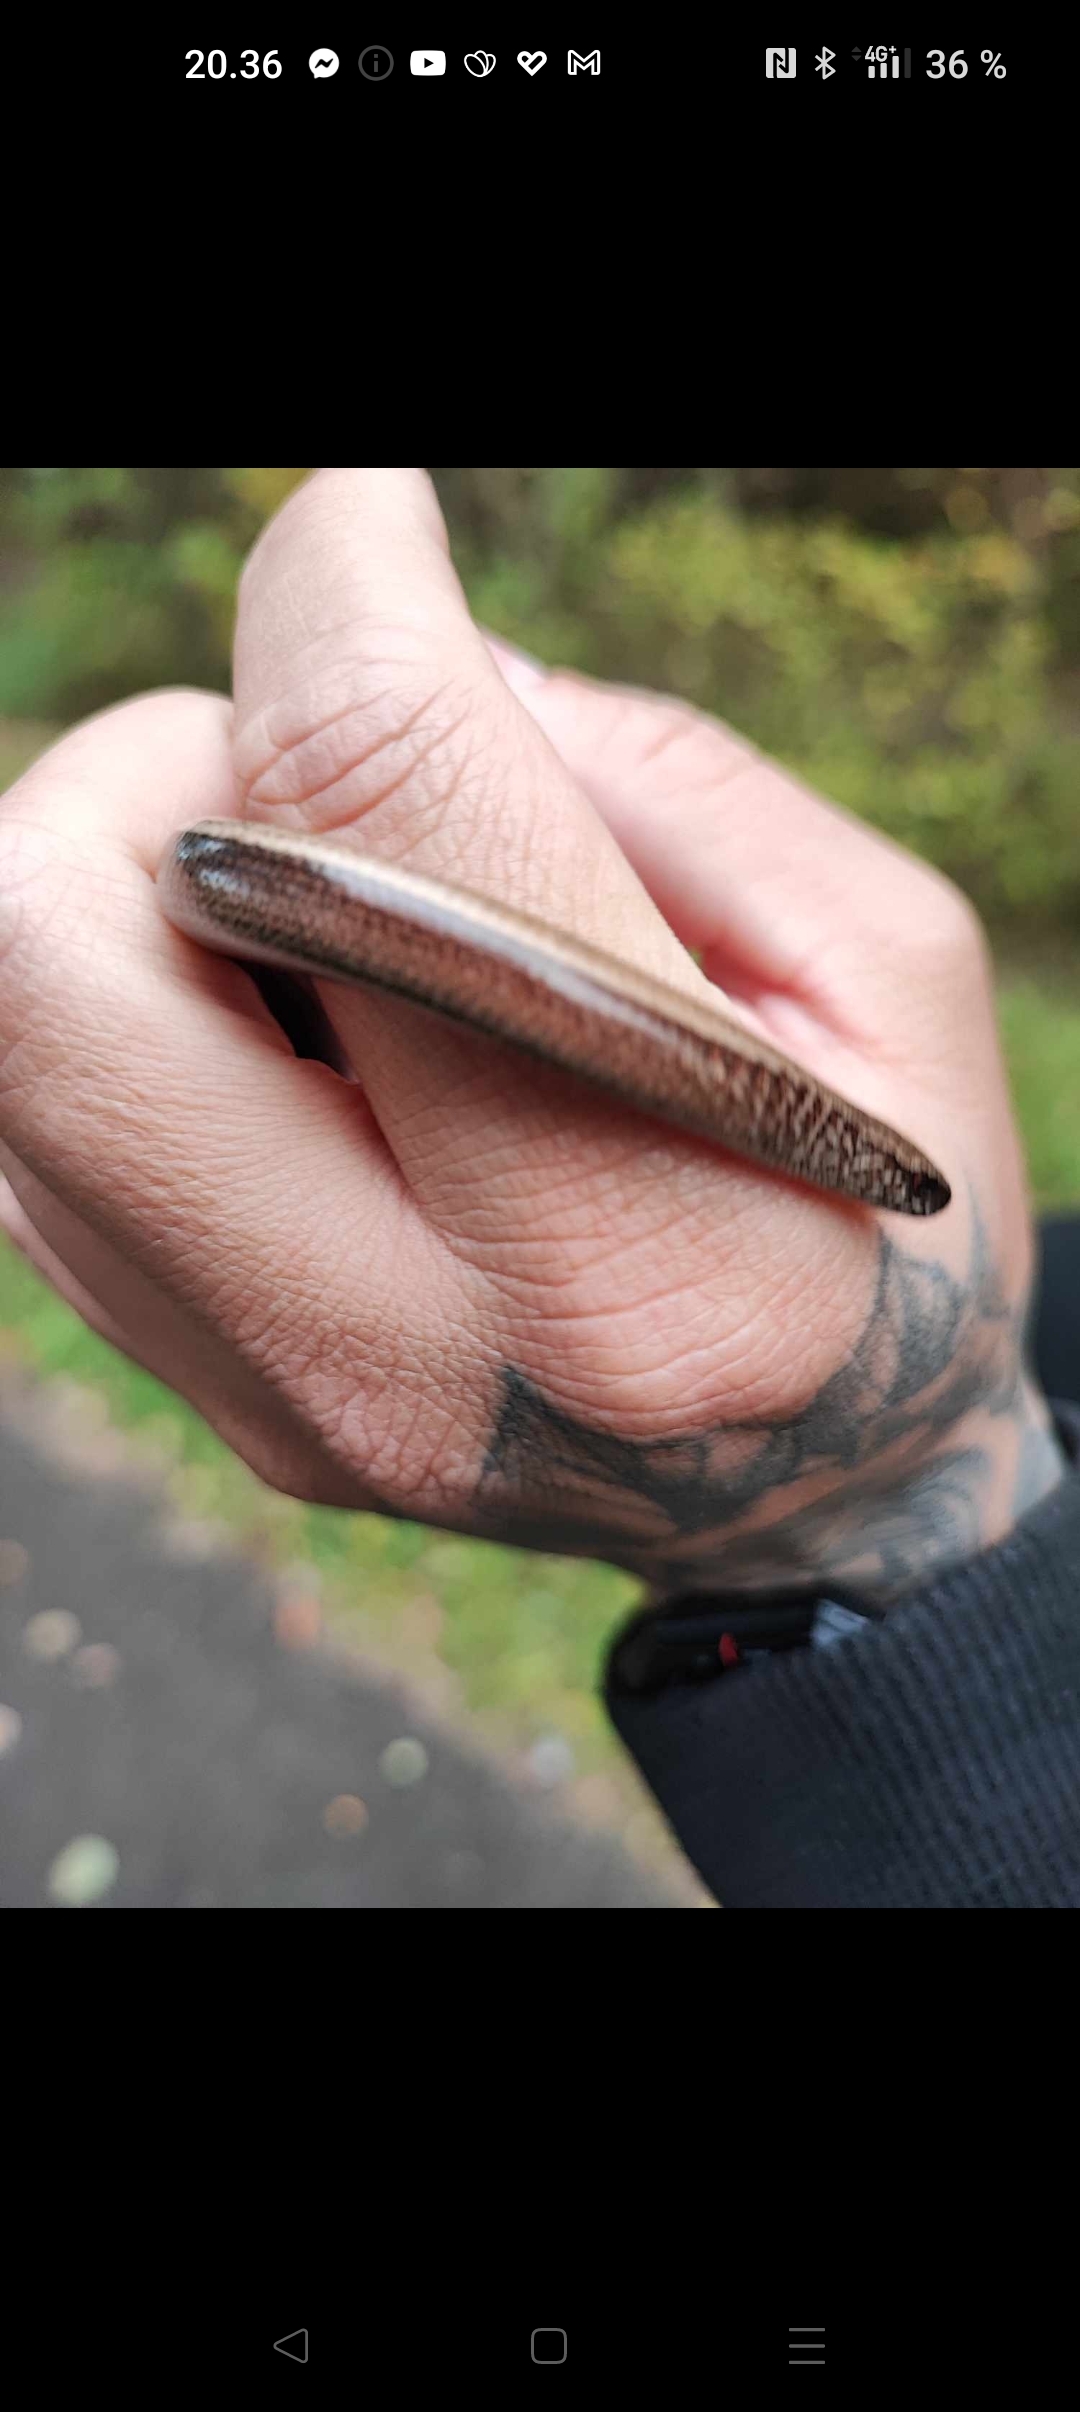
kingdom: Animalia
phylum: Chordata
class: Squamata
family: Anguidae
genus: Anguis
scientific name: Anguis fragilis
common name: Stålorm
